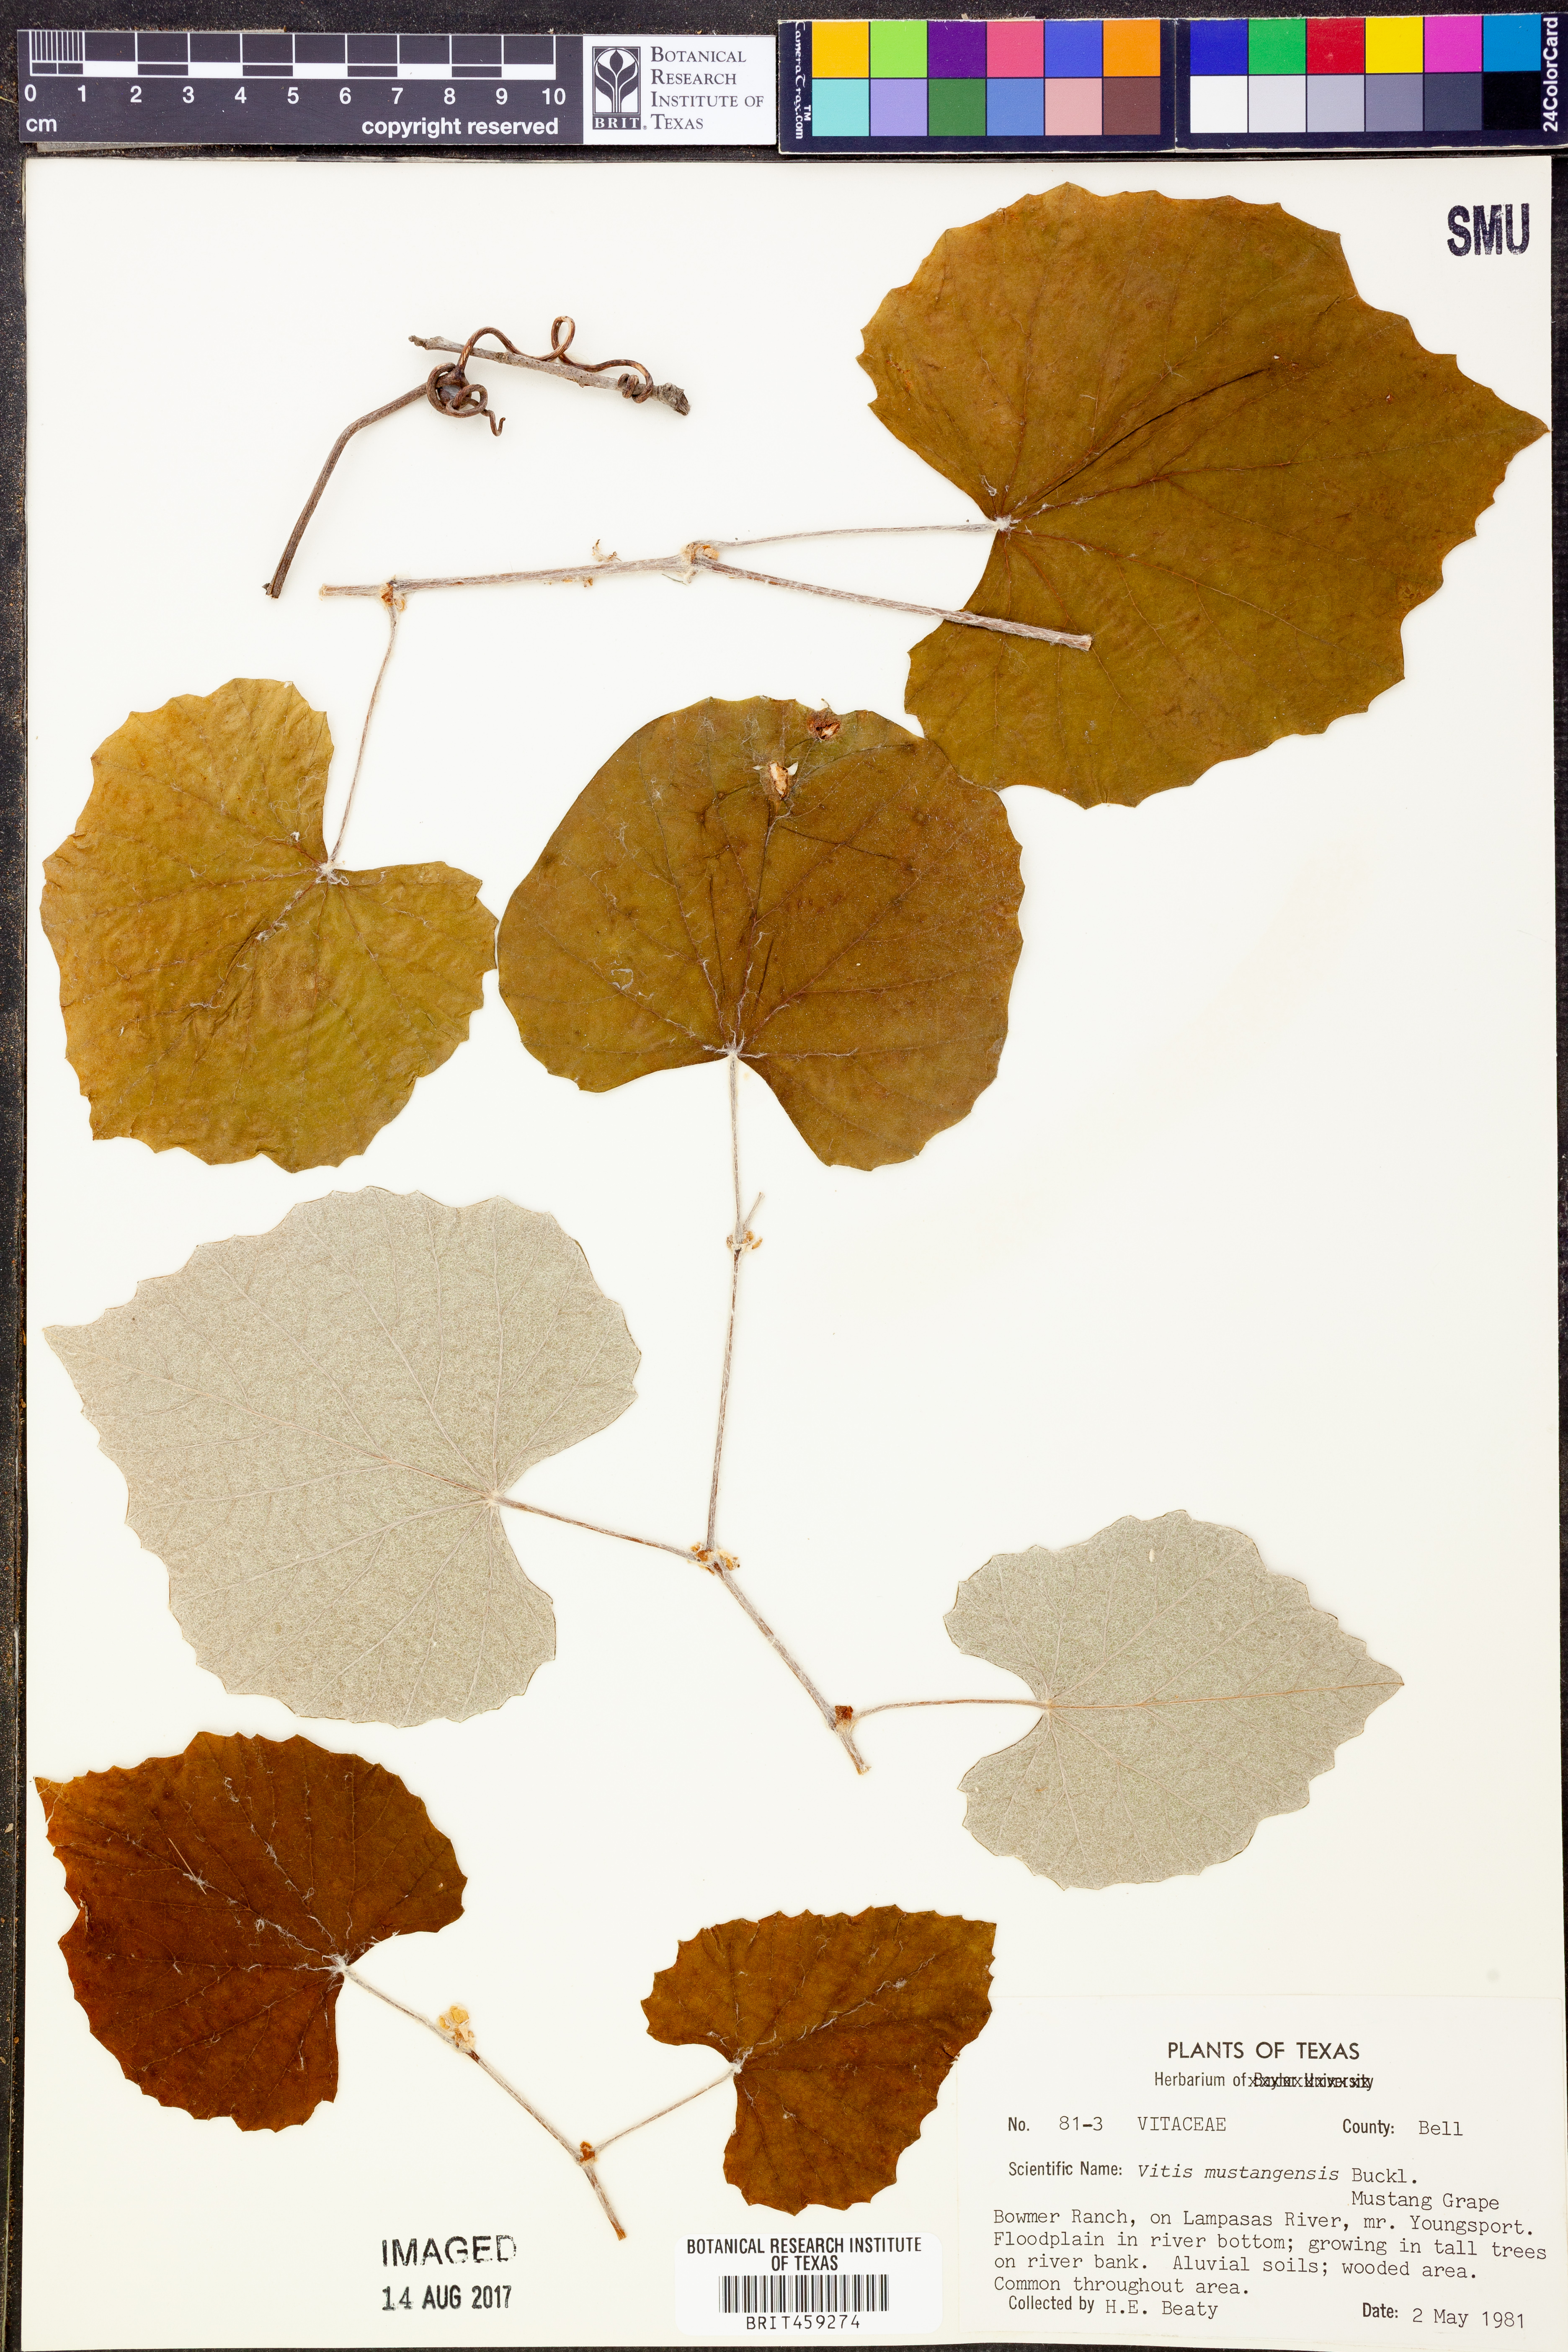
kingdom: Plantae
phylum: Tracheophyta
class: Magnoliopsida
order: Vitales
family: Vitaceae
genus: Vitis
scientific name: Vitis mustangensis
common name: Mustang grape
